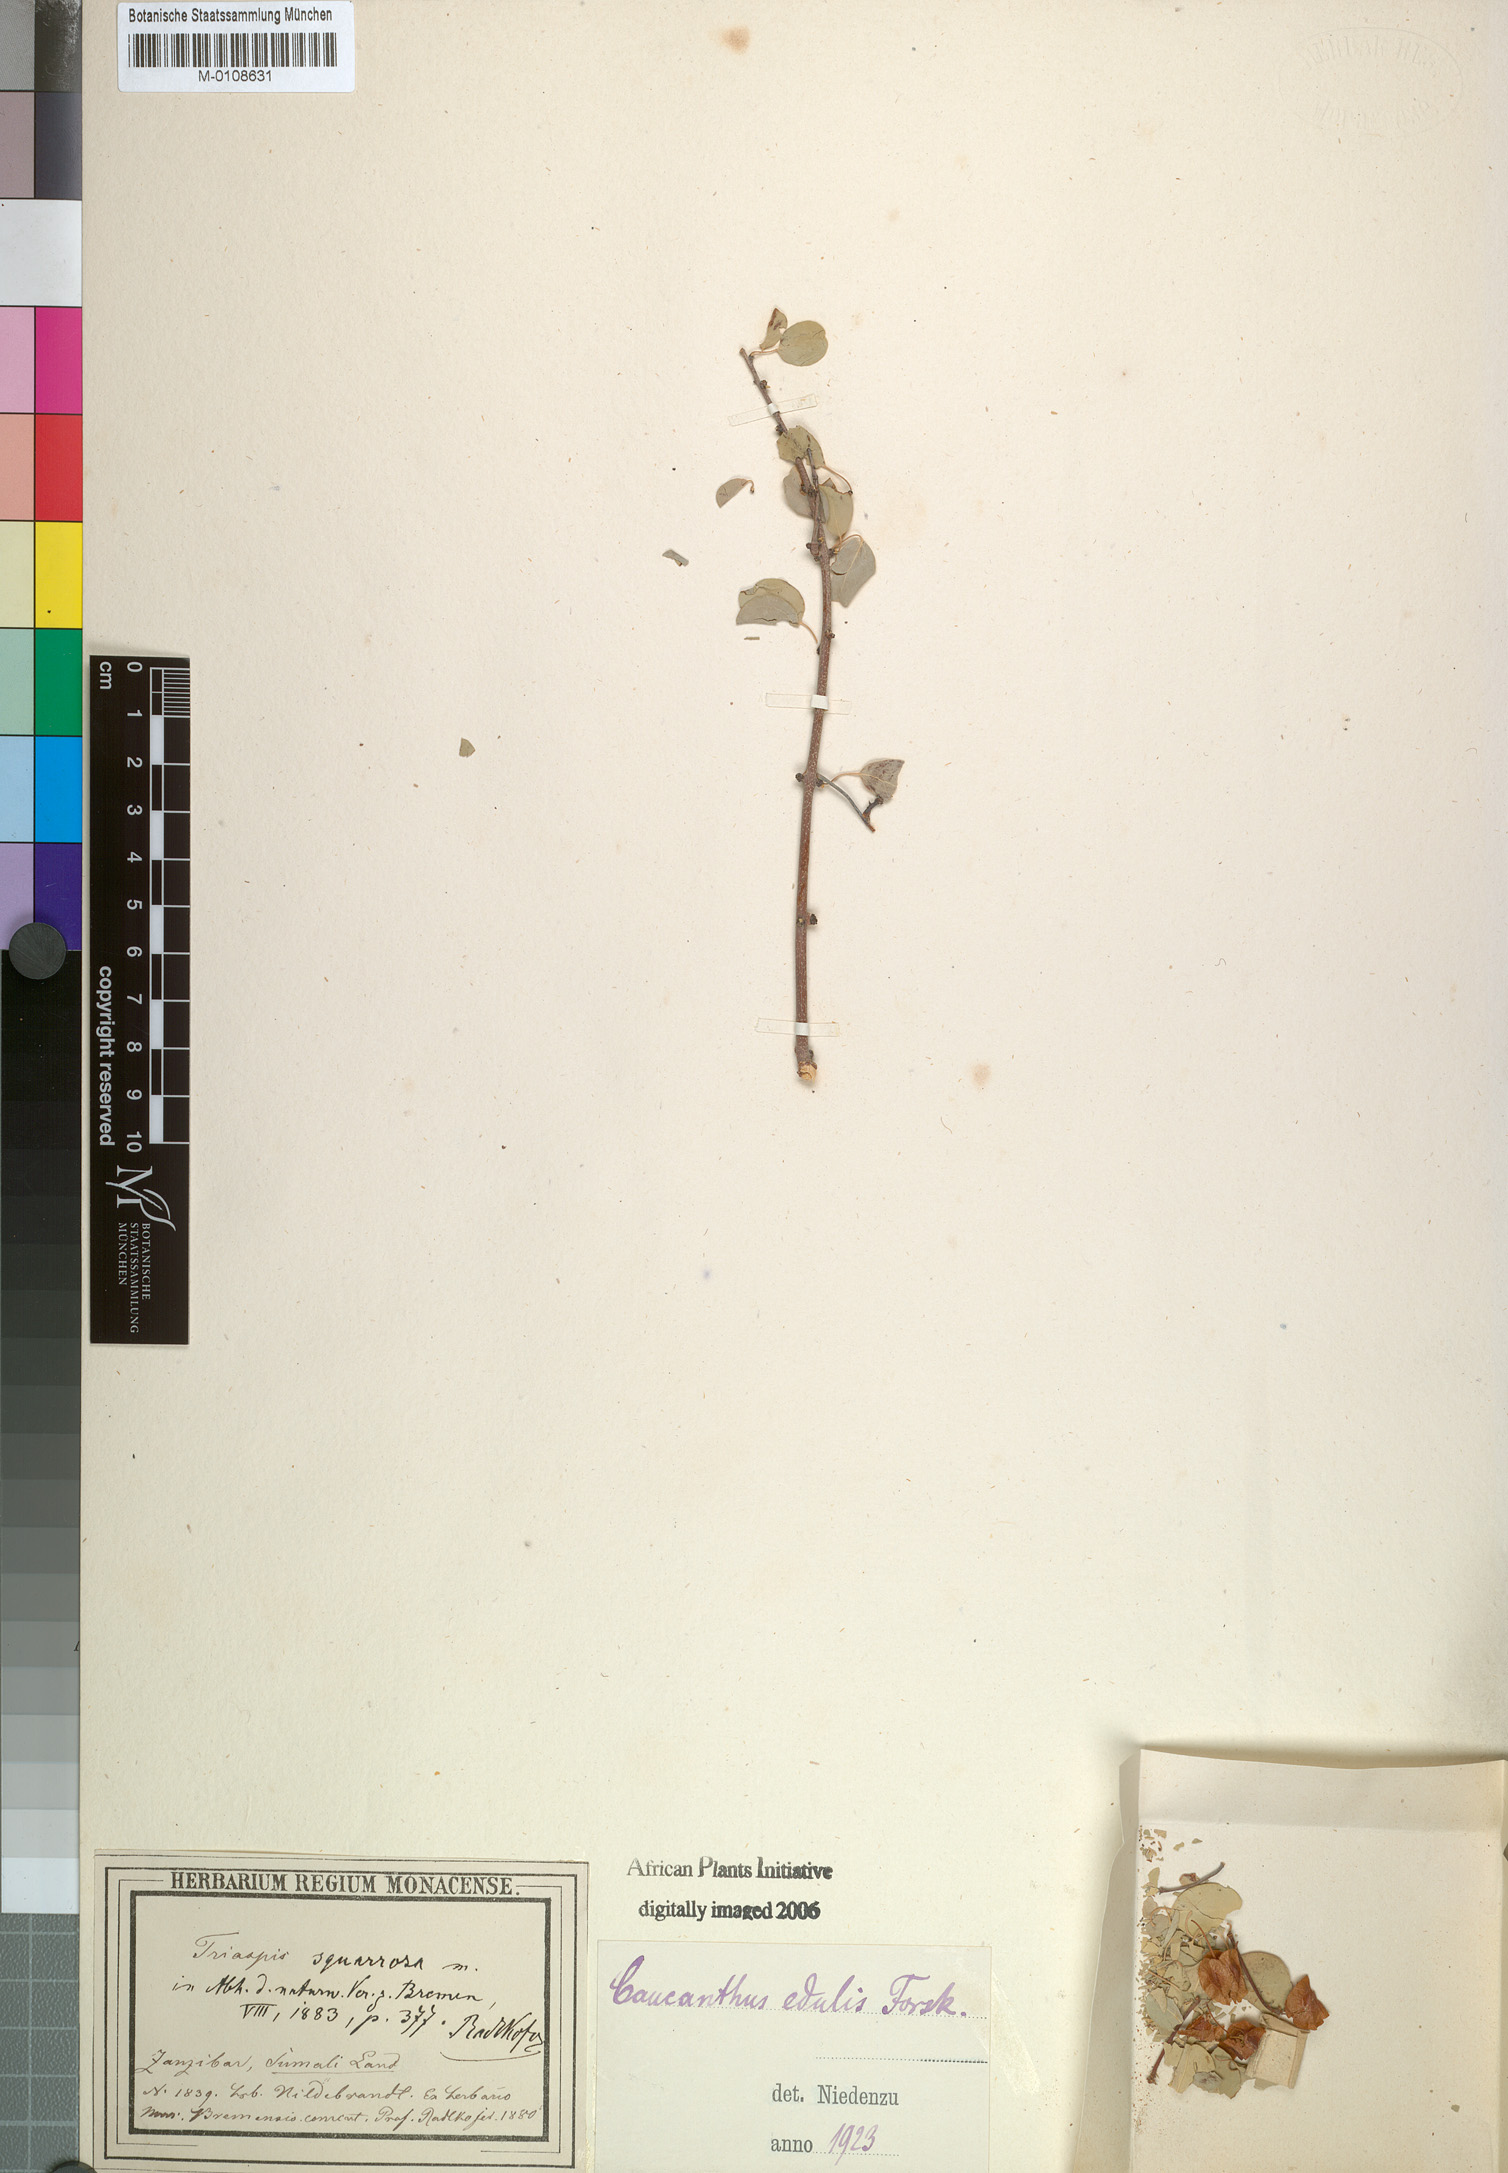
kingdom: Plantae
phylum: Tracheophyta
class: Magnoliopsida
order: Malpighiales
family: Malpighiaceae
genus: Caucanthus
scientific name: Caucanthus edulis
